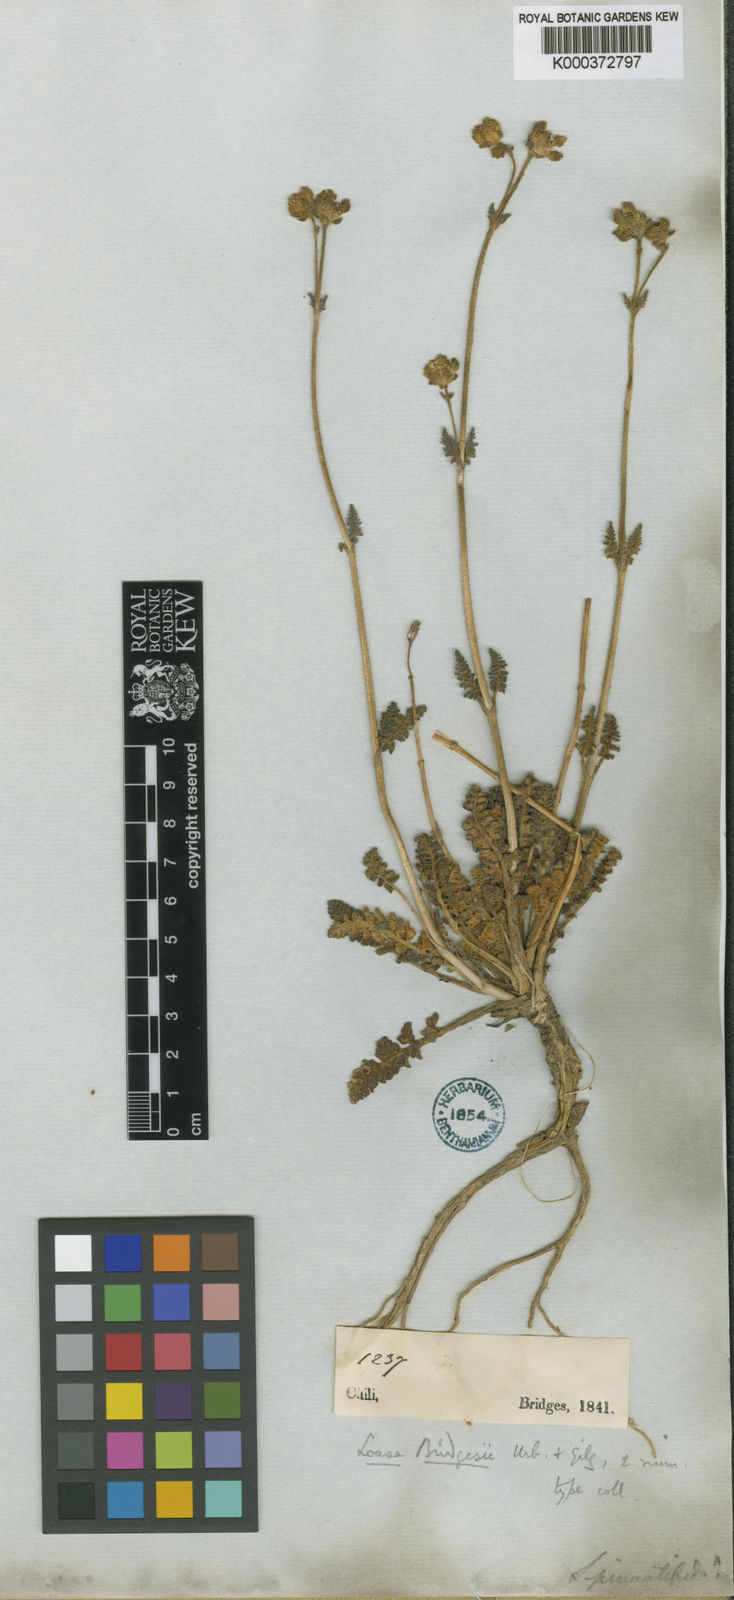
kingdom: Plantae
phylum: Tracheophyta
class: Magnoliopsida
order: Cornales
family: Loasaceae
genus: Pinnasa
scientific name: Pinnasa pinnatifida
